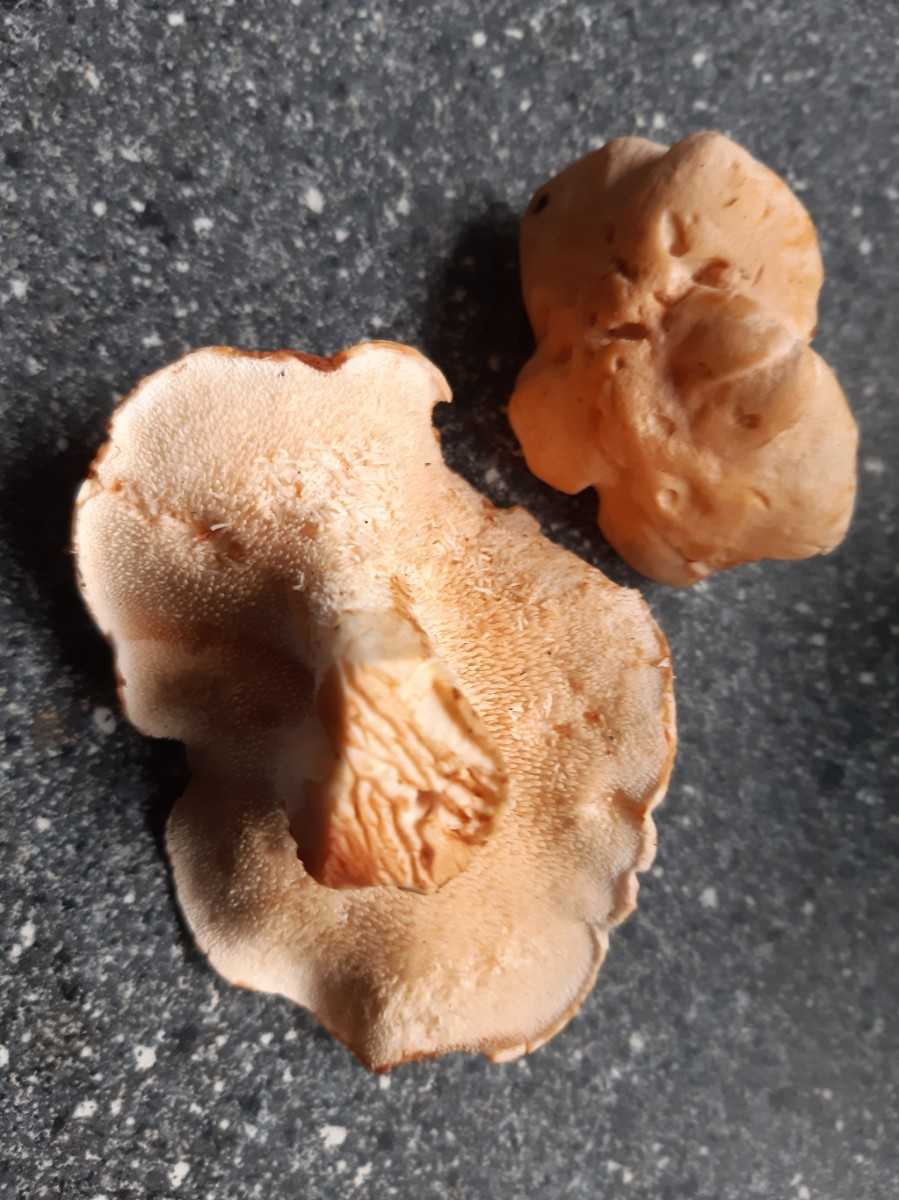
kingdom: Fungi
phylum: Basidiomycota
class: Agaricomycetes
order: Cantharellales
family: Hydnaceae
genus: Hydnum
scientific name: Hydnum
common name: pigsvamp
